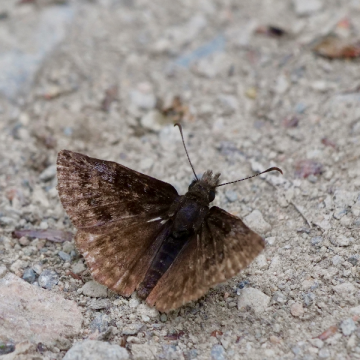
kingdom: Animalia
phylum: Arthropoda
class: Insecta
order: Lepidoptera
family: Hesperiidae
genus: Erynnis
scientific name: Erynnis icelus
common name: Dreamy Duskywing
